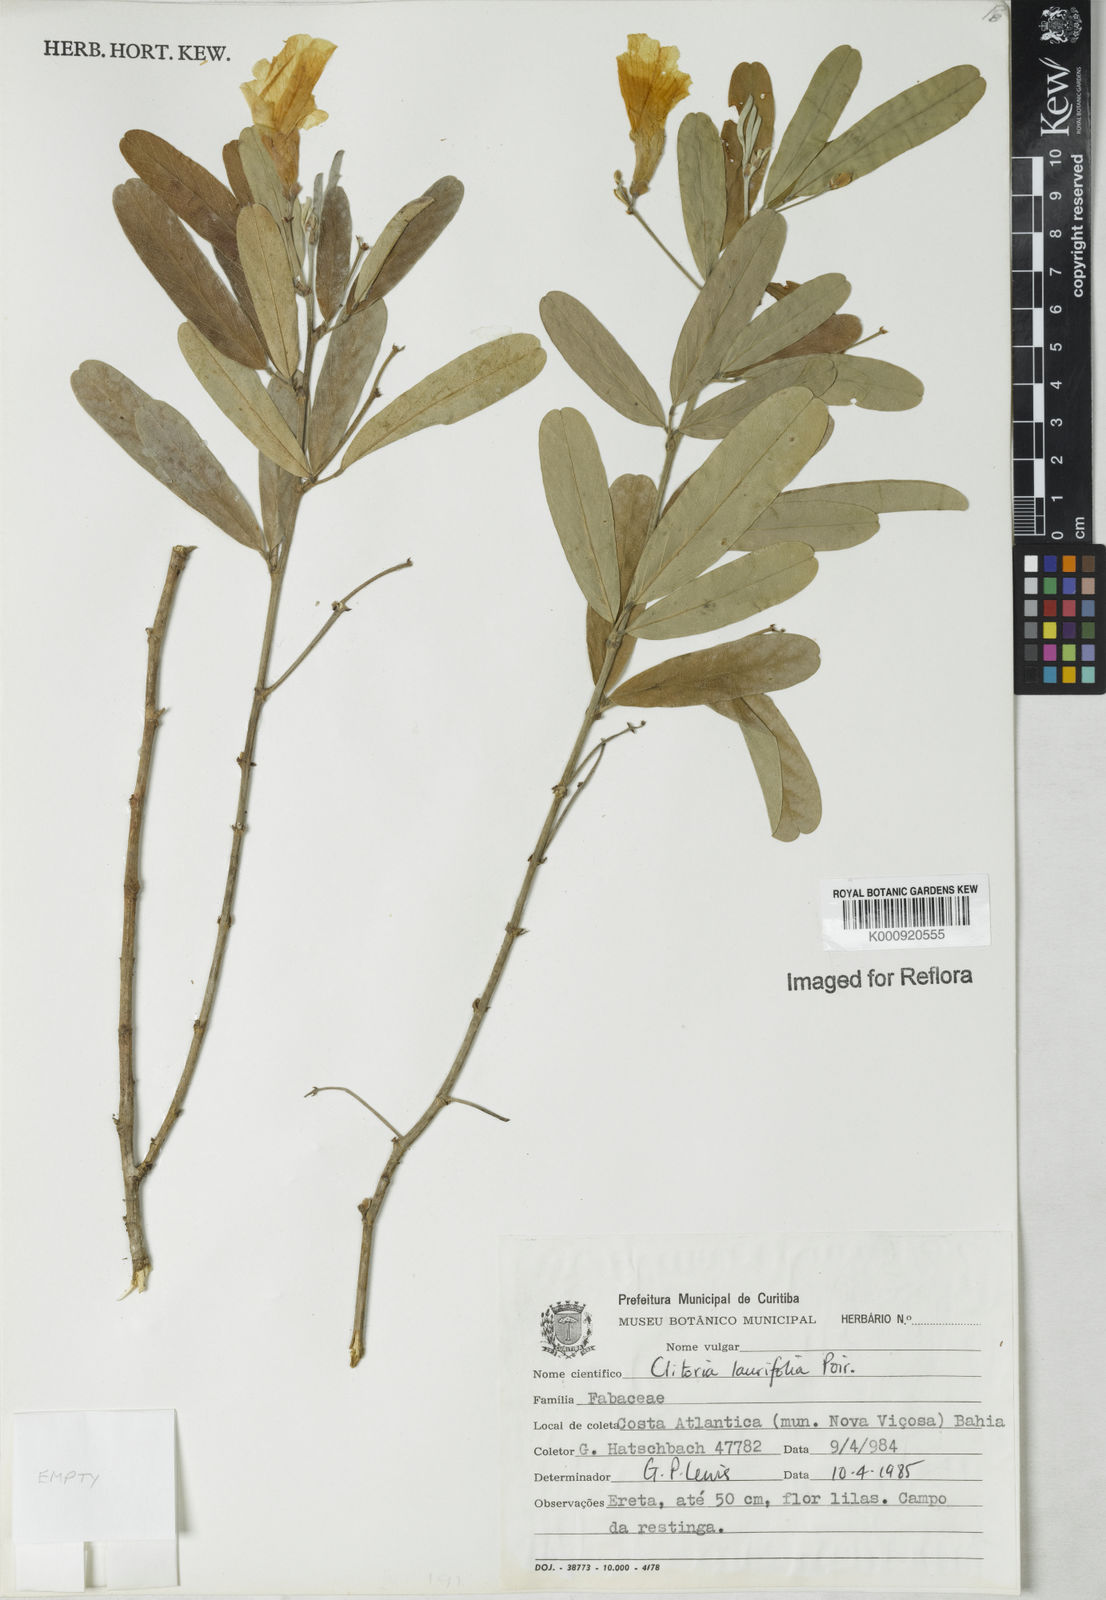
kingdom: Plantae
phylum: Tracheophyta
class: Magnoliopsida
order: Fabales
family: Fabaceae
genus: Clitoria
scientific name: Clitoria laurifolia
